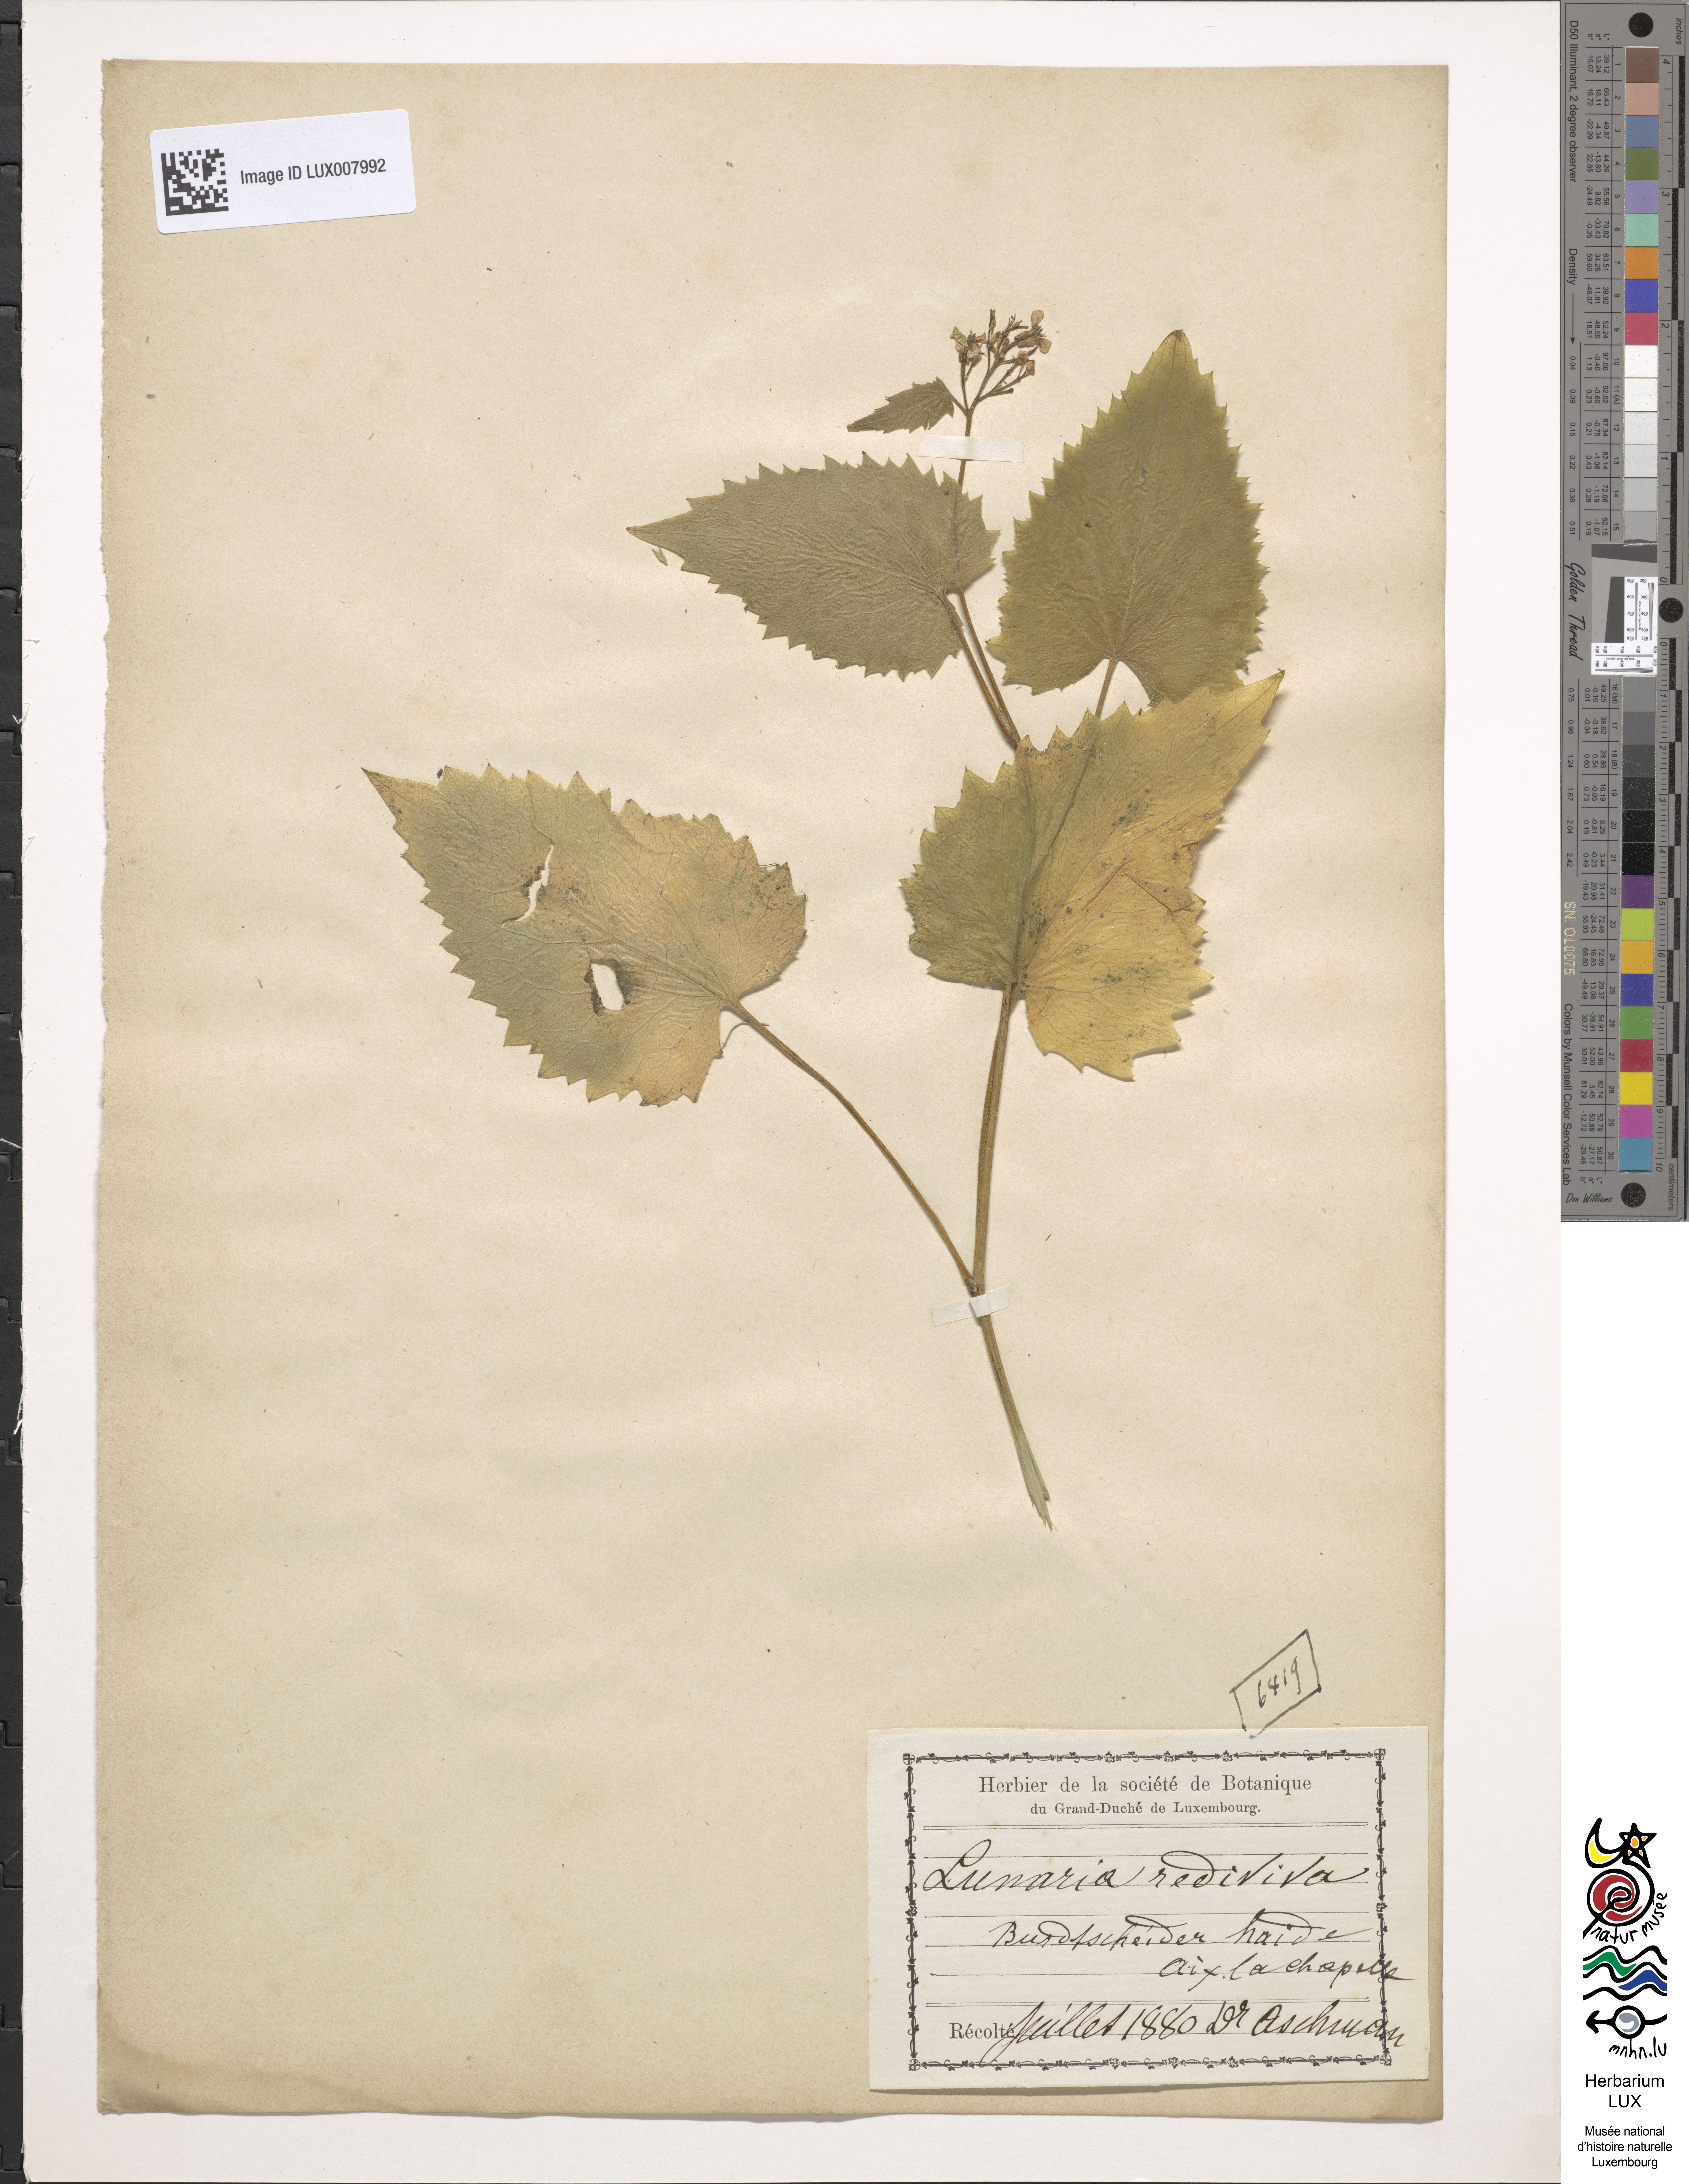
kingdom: Plantae
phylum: Tracheophyta
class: Magnoliopsida
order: Brassicales
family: Brassicaceae
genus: Lunaria
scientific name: Lunaria rediviva
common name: Perennial honesty
